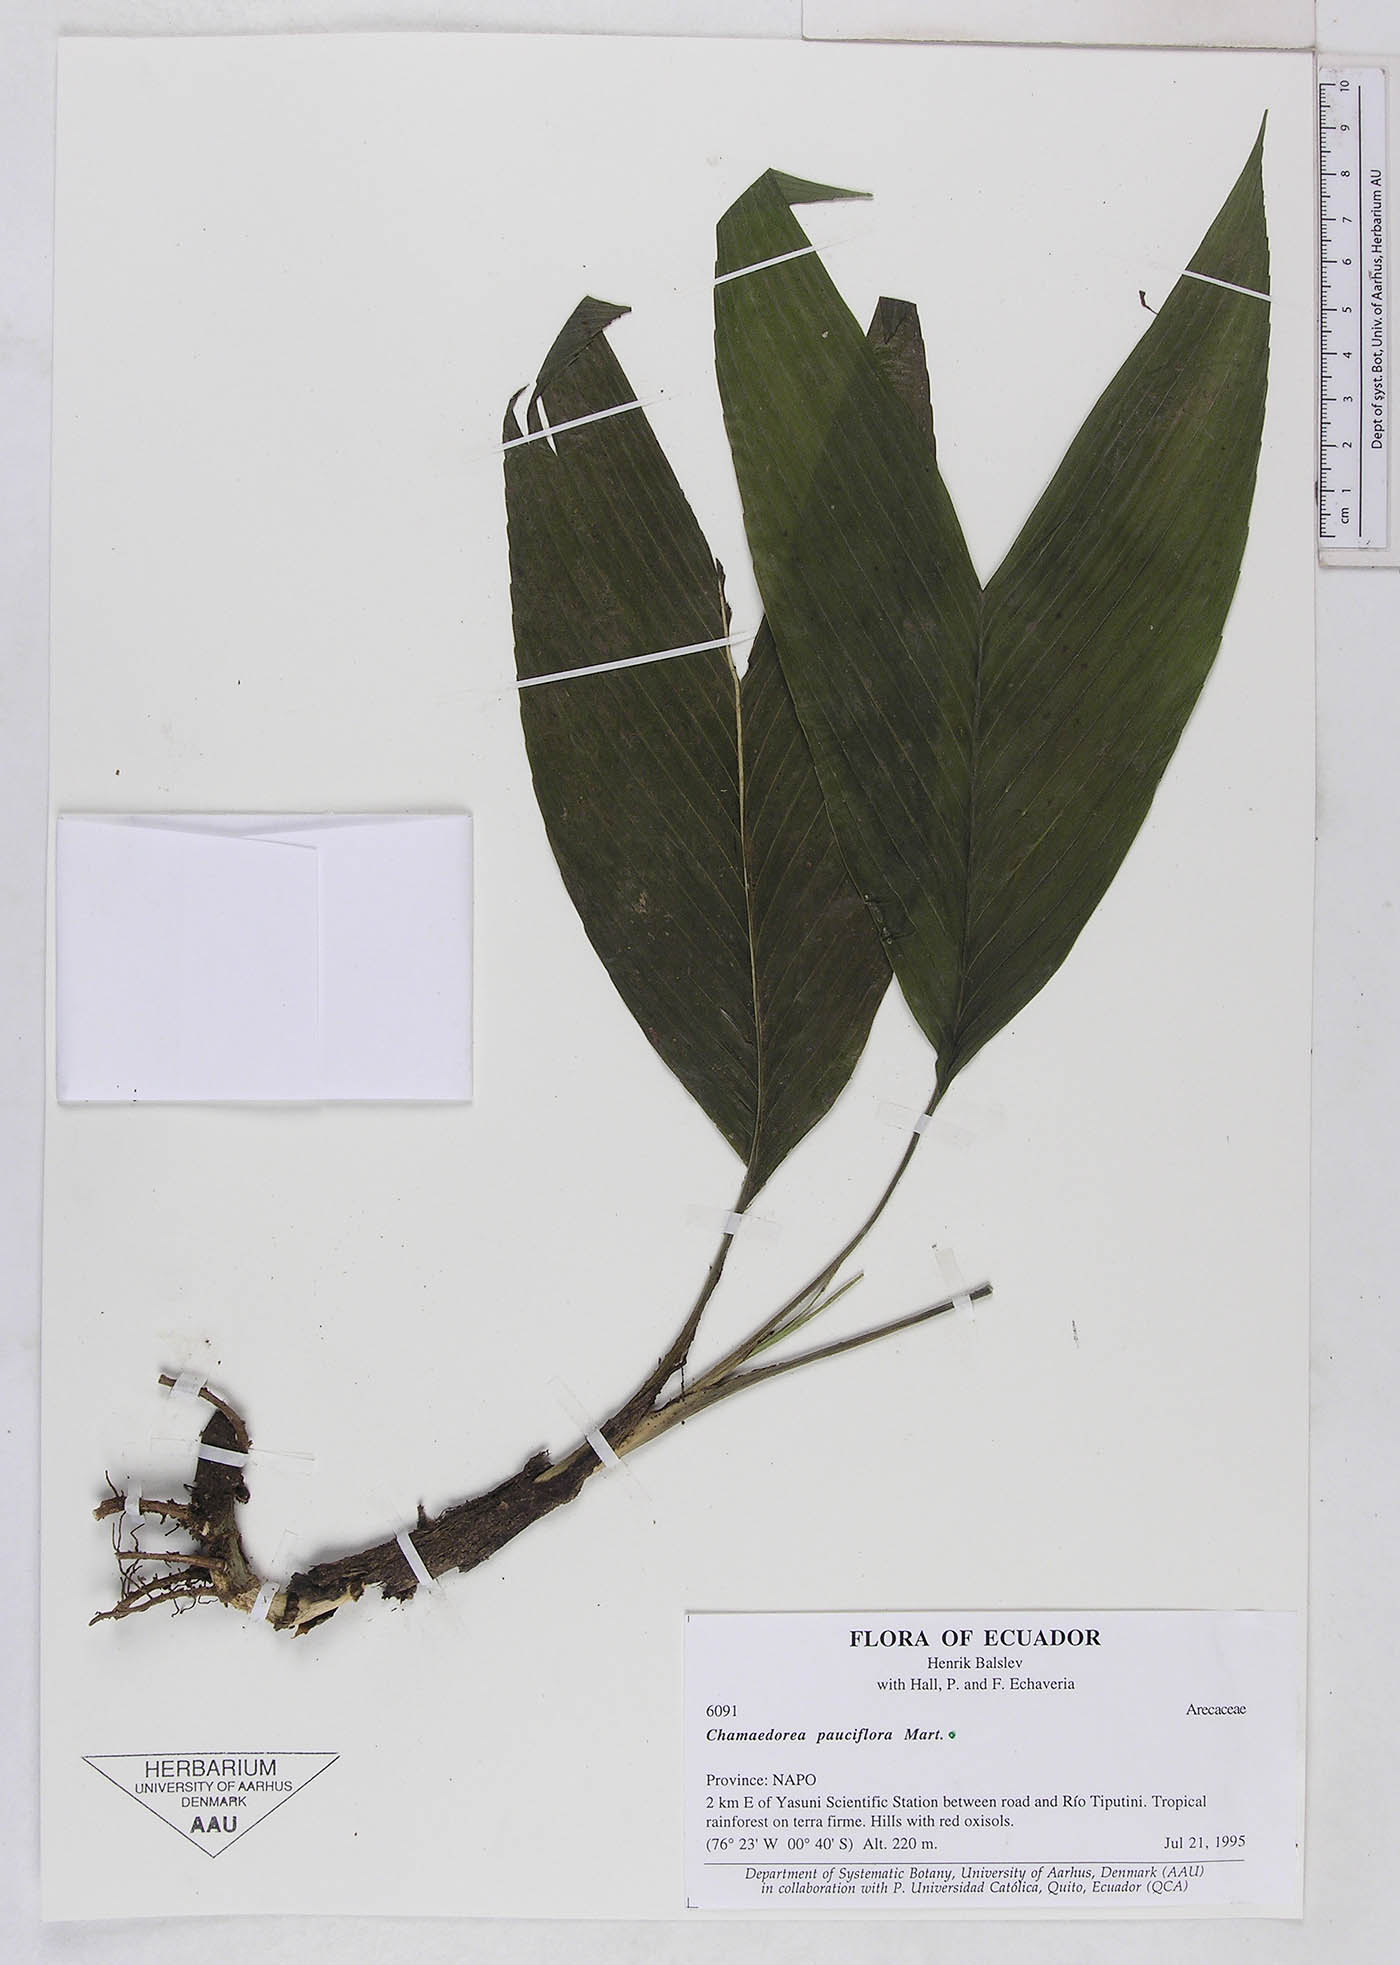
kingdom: Plantae
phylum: Tracheophyta
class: Liliopsida
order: Arecales
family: Arecaceae
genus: Chamaedorea
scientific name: Chamaedorea pauciflora
